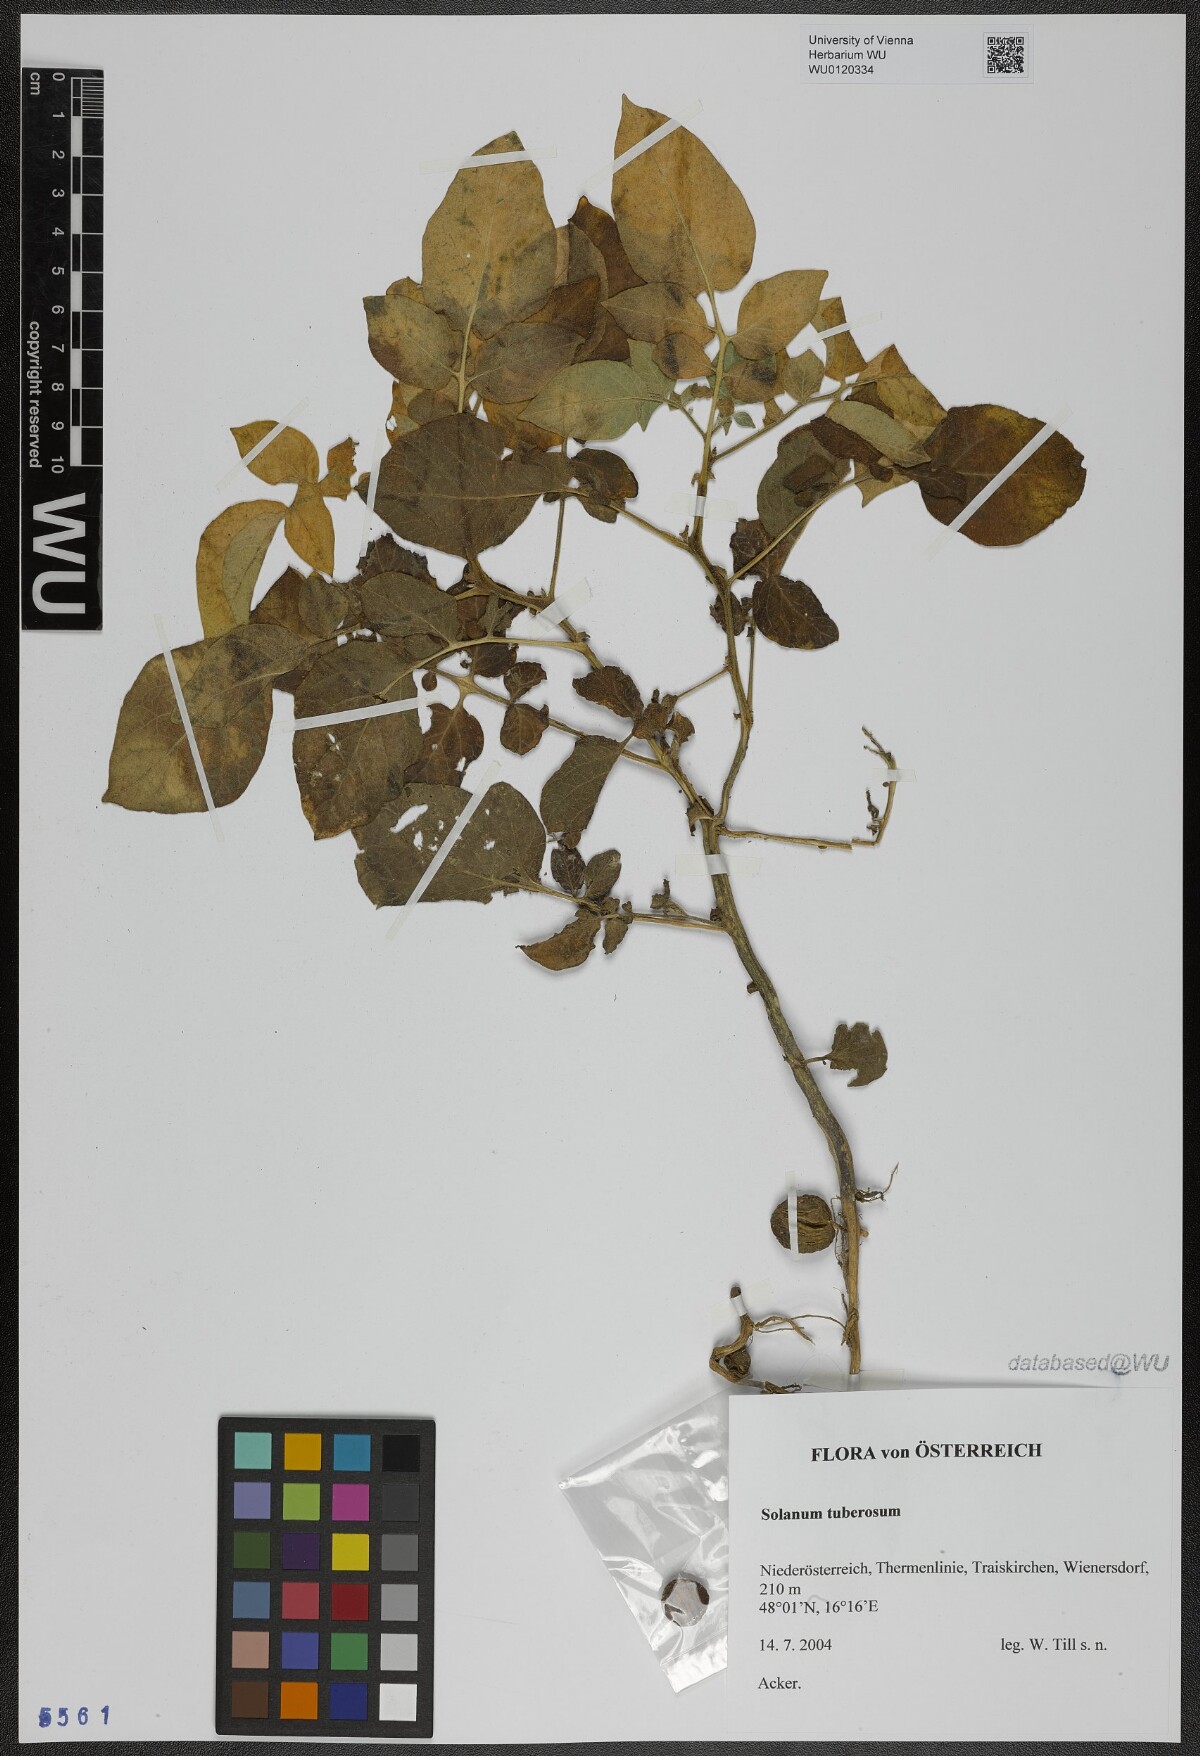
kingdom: Plantae
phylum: Tracheophyta
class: Magnoliopsida
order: Solanales
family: Solanaceae
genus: Solanum
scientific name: Solanum tuberosum
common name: Potato
